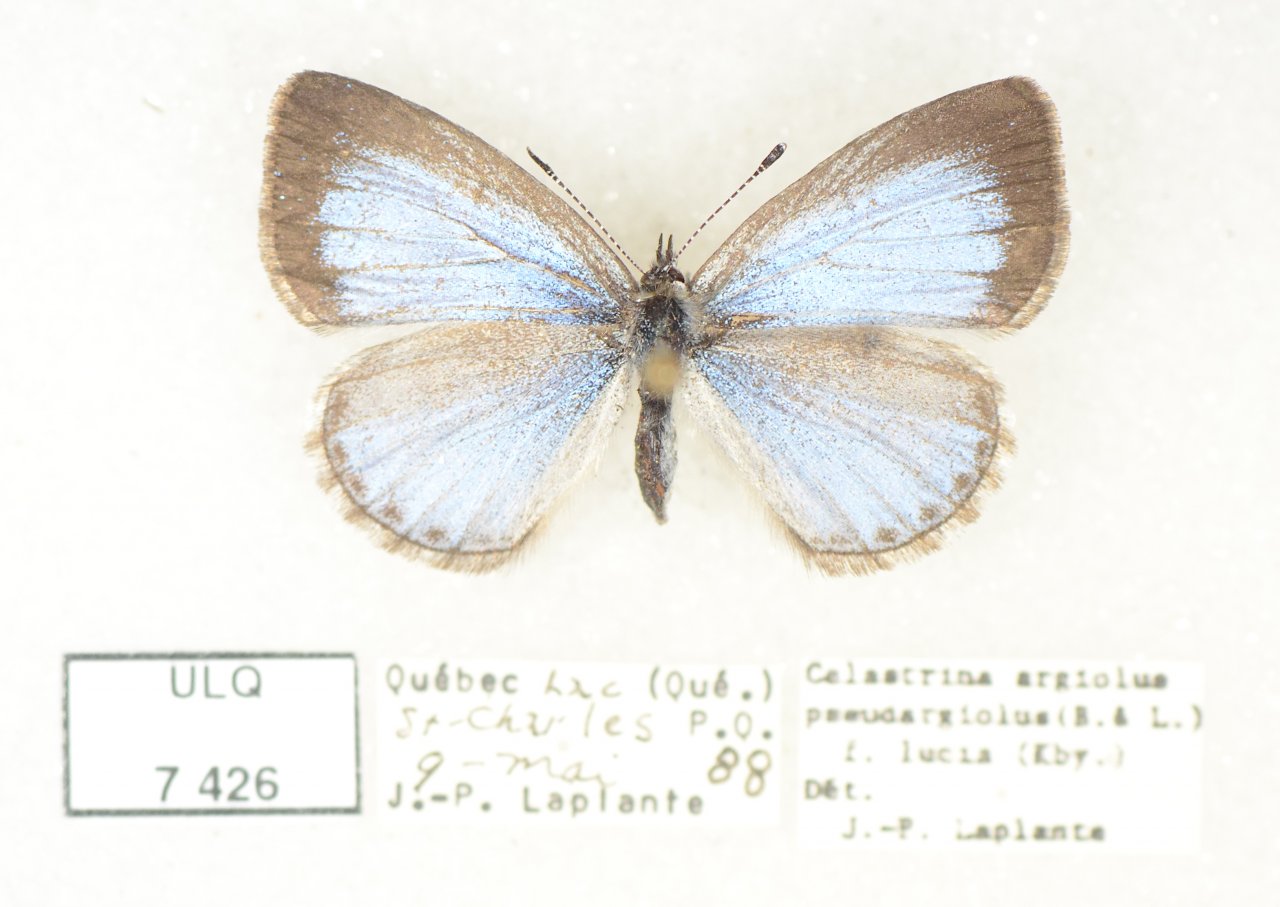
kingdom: Animalia
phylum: Arthropoda
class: Insecta
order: Lepidoptera
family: Lycaenidae
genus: Celastrina
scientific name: Celastrina lucia
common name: Northern Spring Azure
